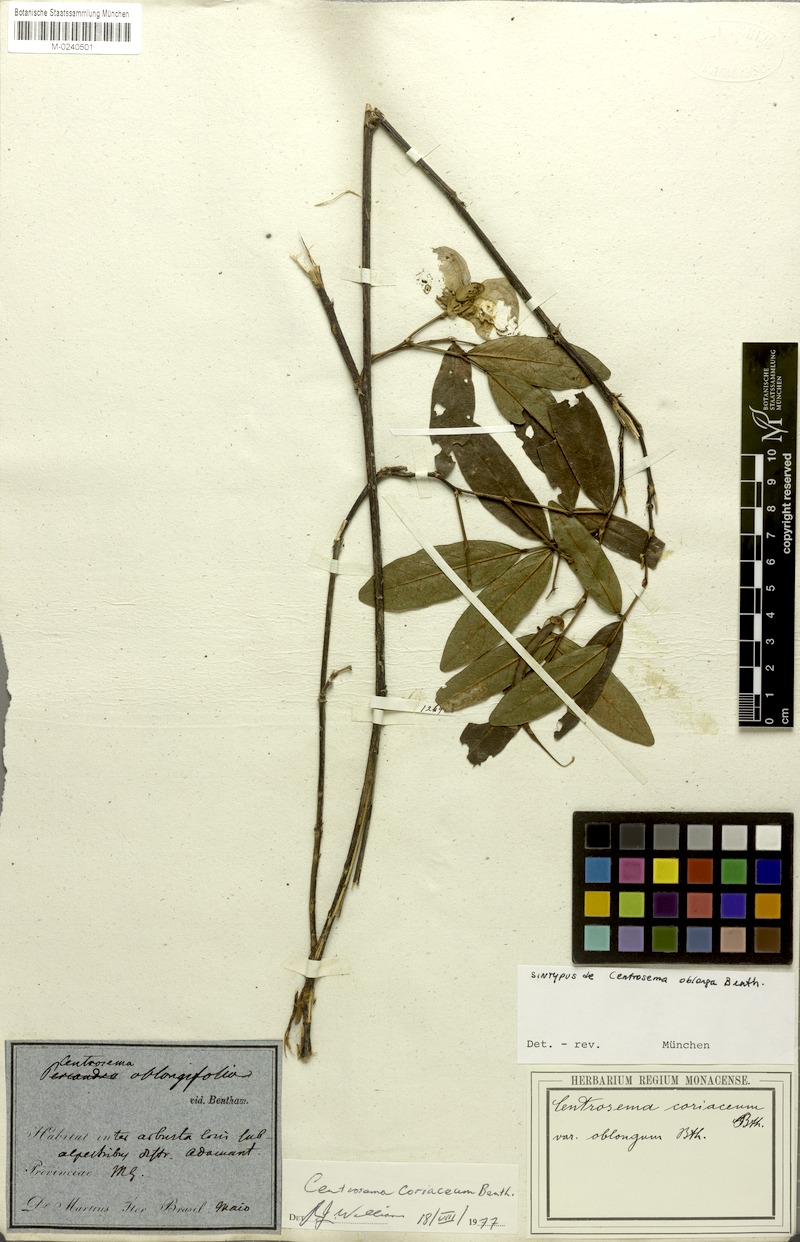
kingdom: Plantae
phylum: Tracheophyta
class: Magnoliopsida
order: Fabales
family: Fabaceae
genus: Centrosema
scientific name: Centrosema coriaceum
